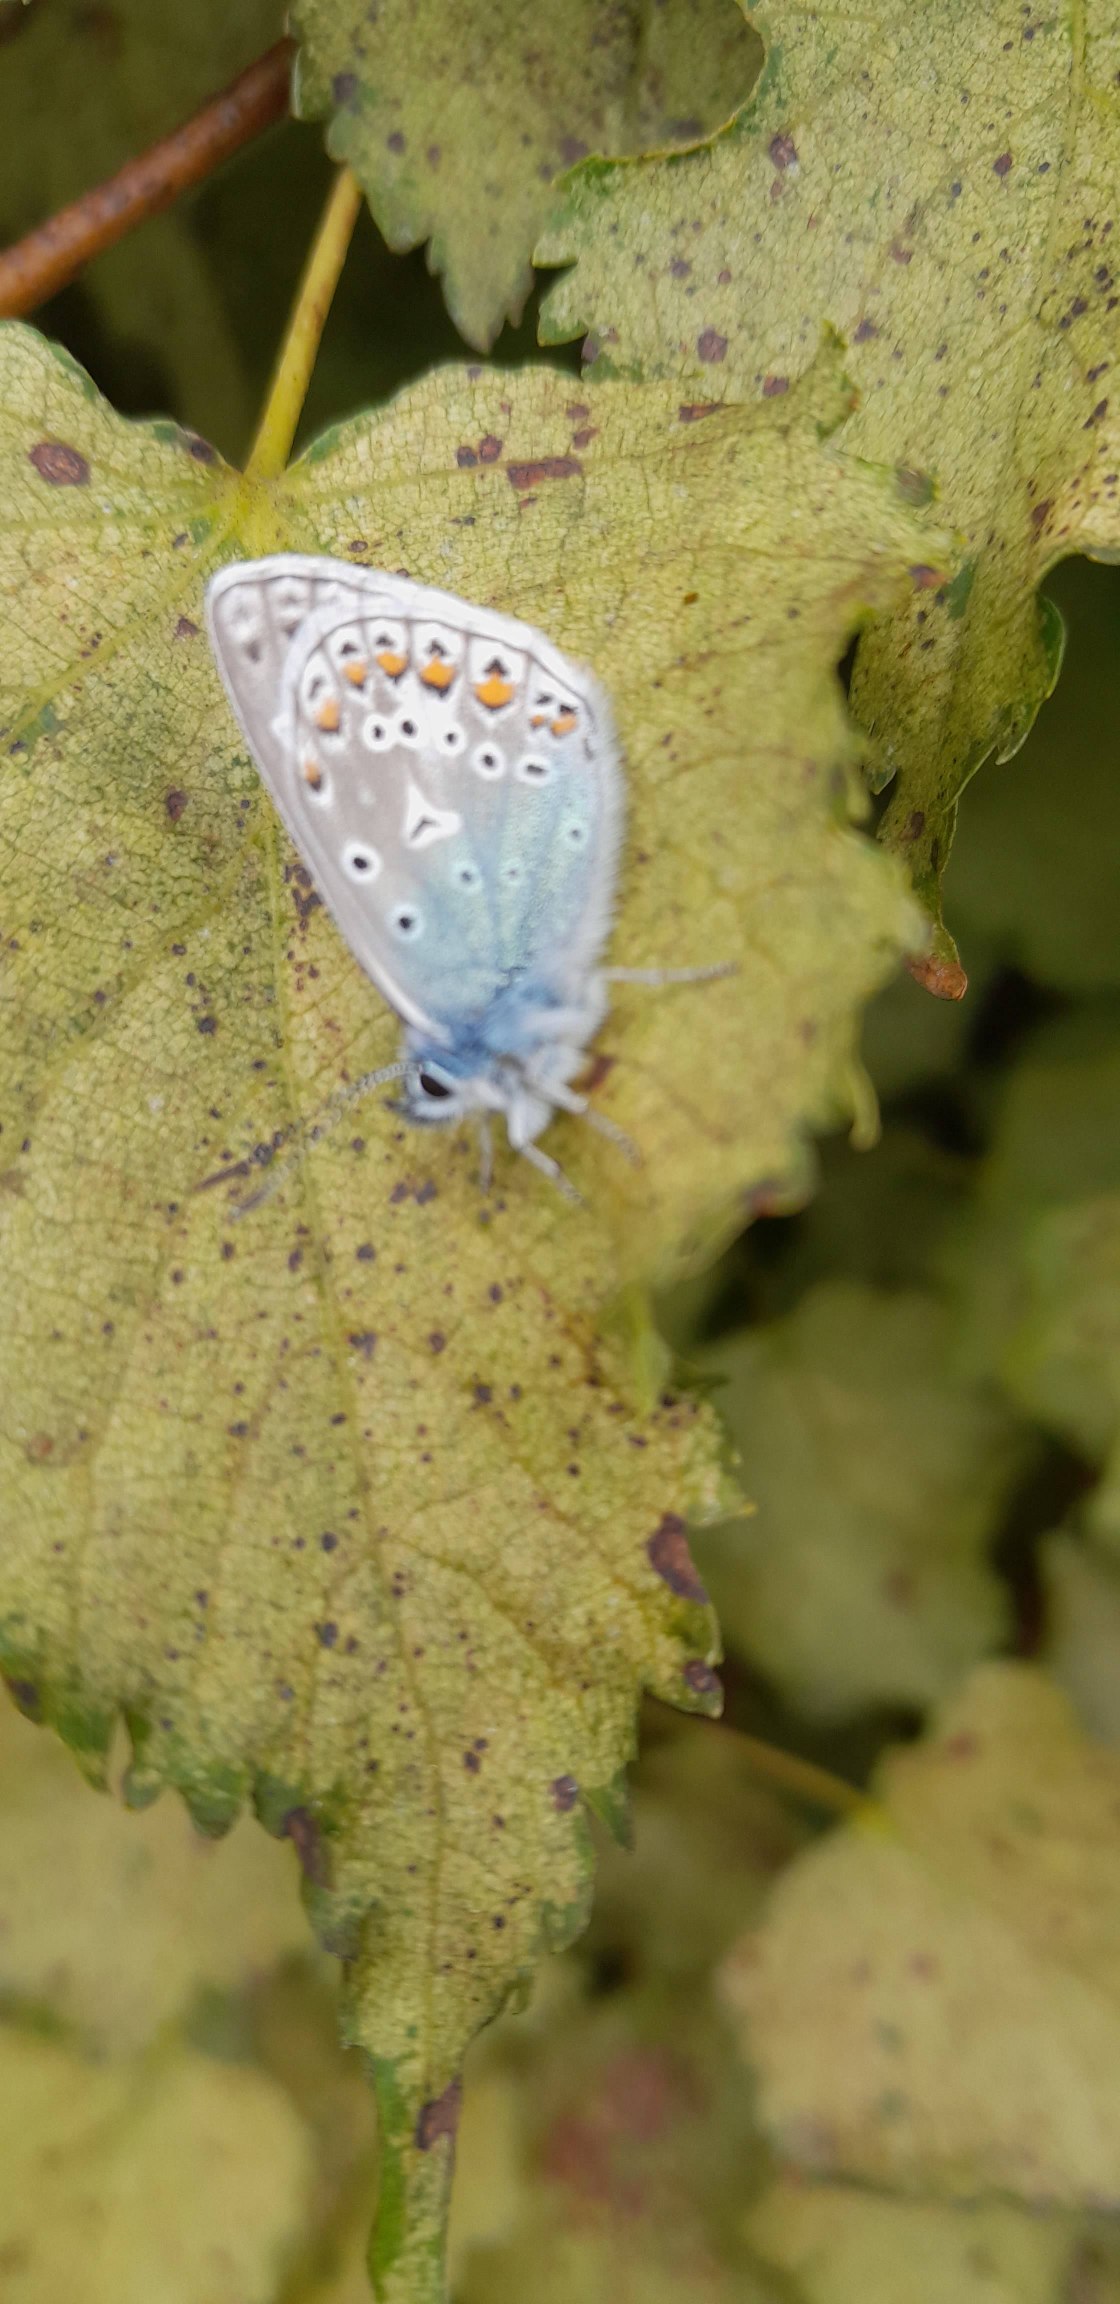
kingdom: Animalia
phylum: Arthropoda
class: Insecta
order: Lepidoptera
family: Lycaenidae
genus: Polyommatus
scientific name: Polyommatus icarus
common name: Almindelig blåfugl
